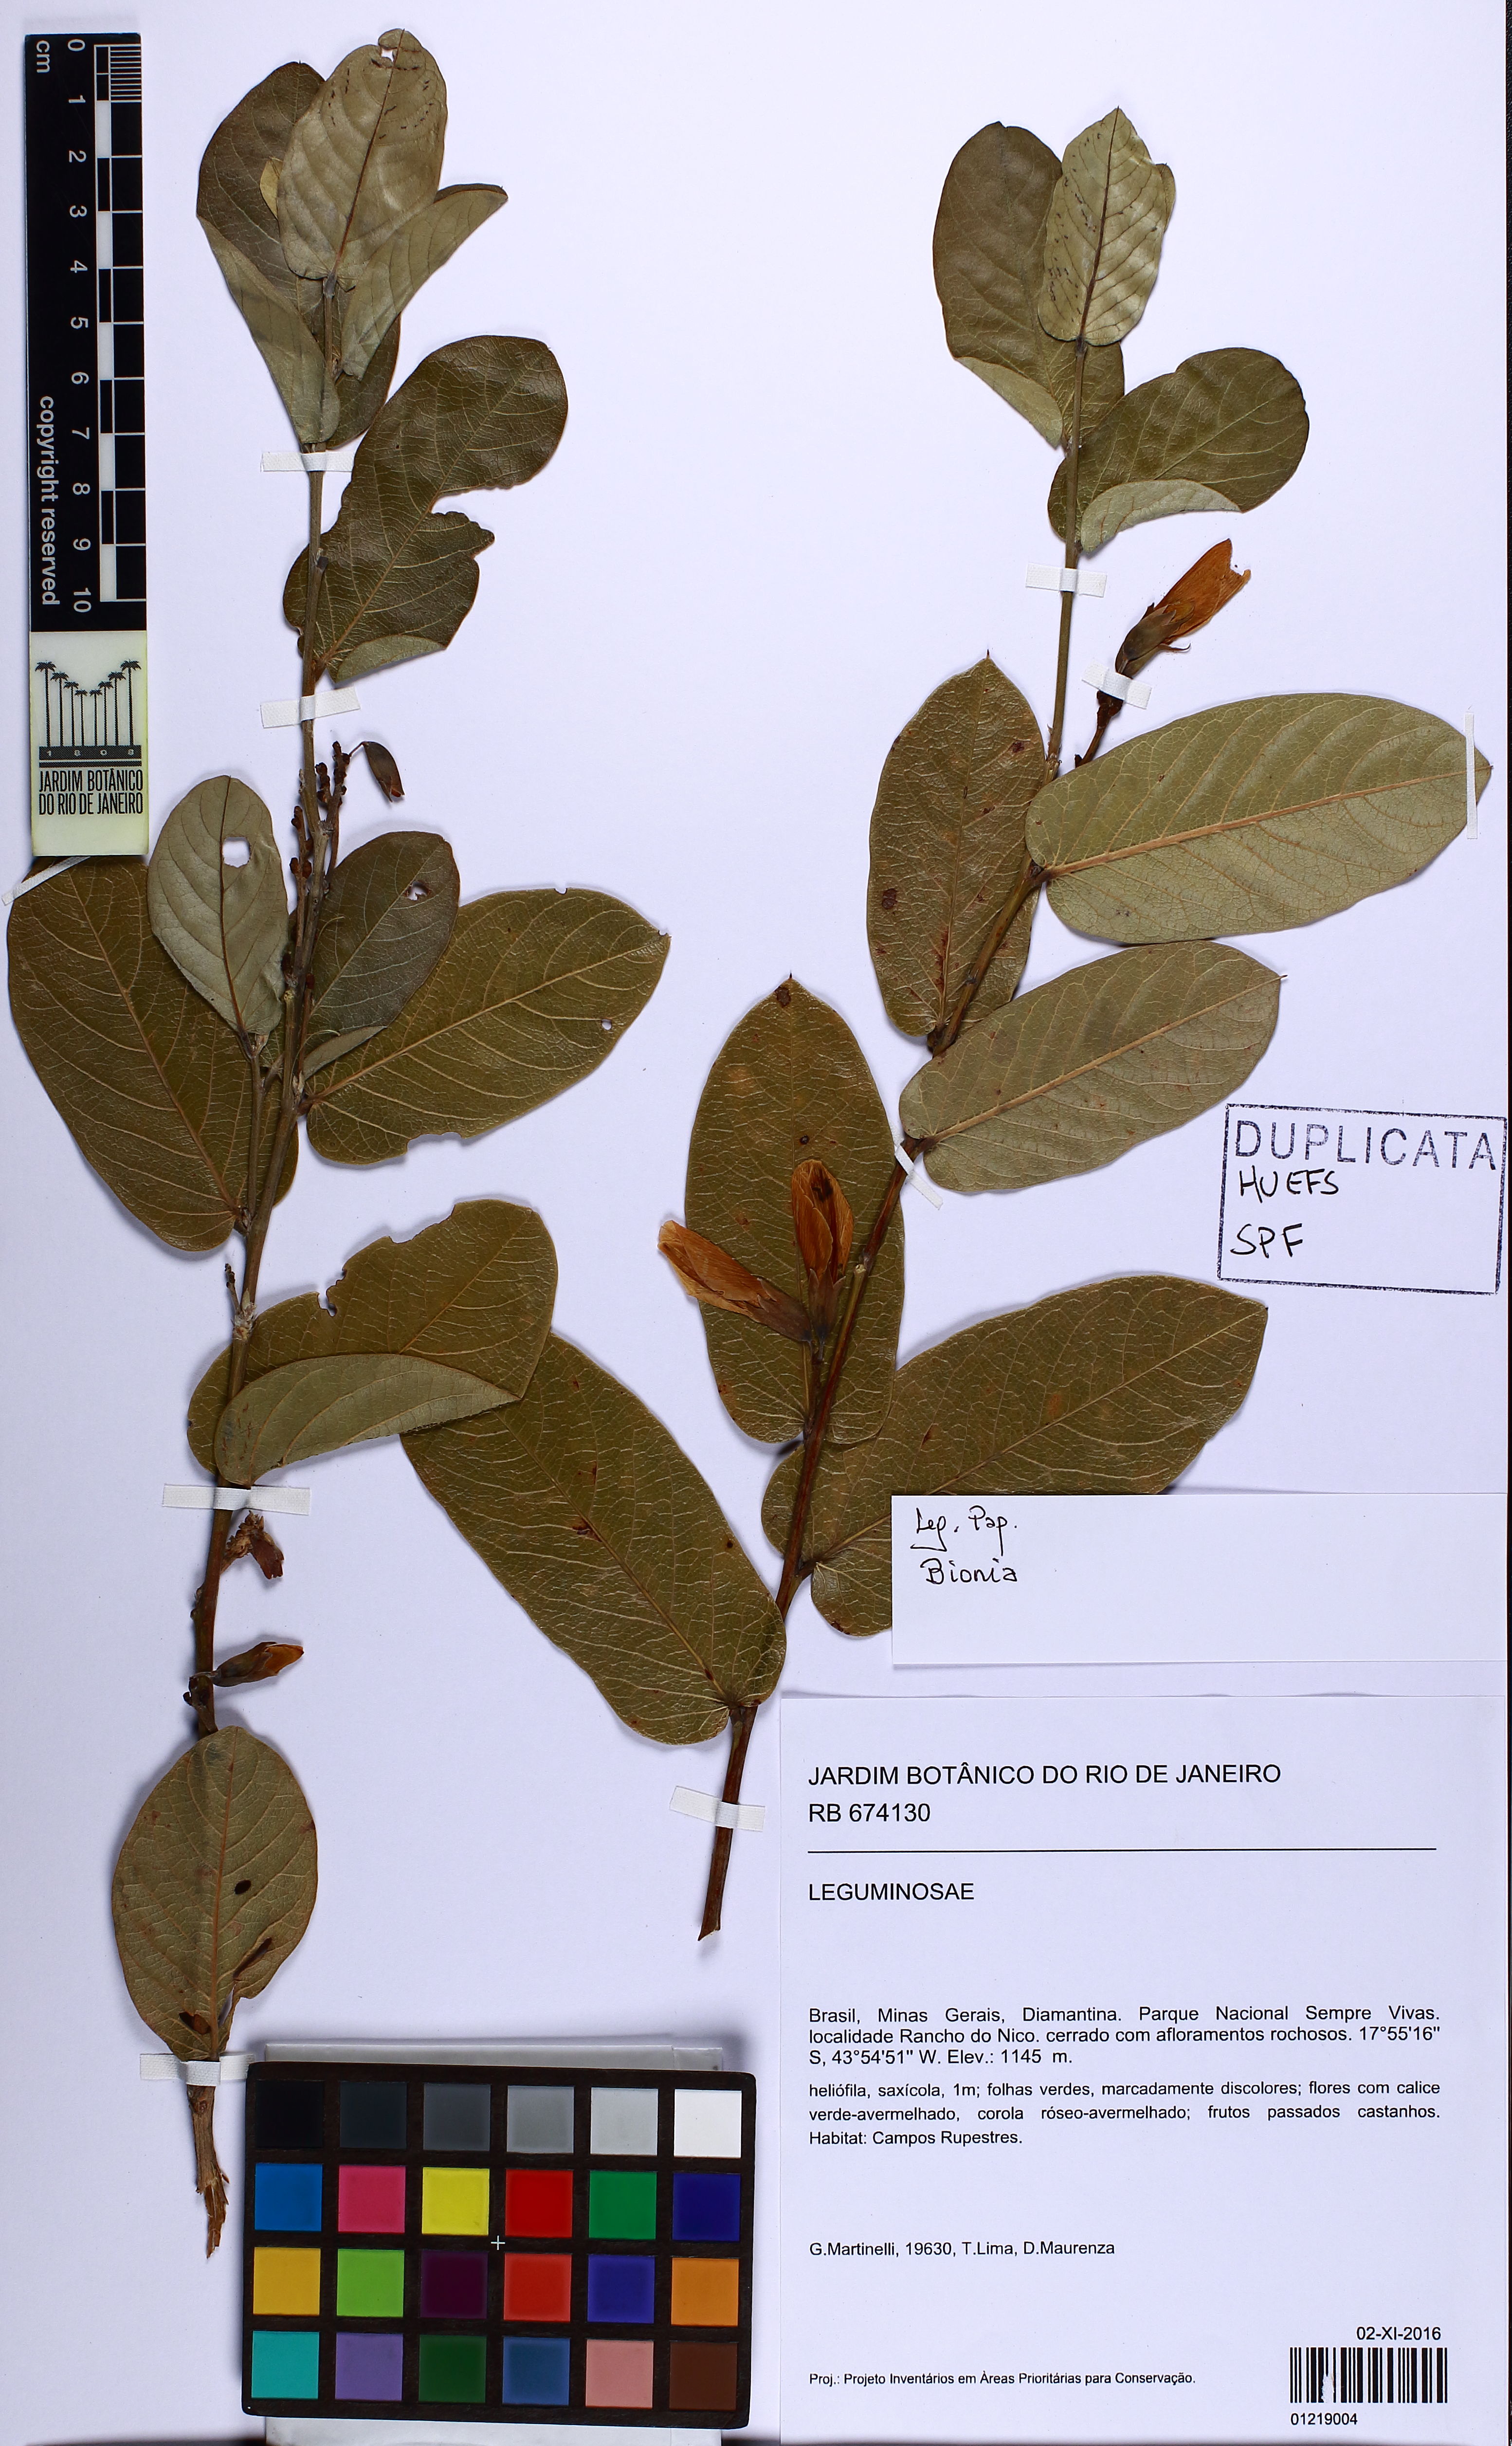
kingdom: Plantae
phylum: Tracheophyta
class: Magnoliopsida
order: Fabales
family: Fabaceae
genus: Camptosema
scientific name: Camptosema
